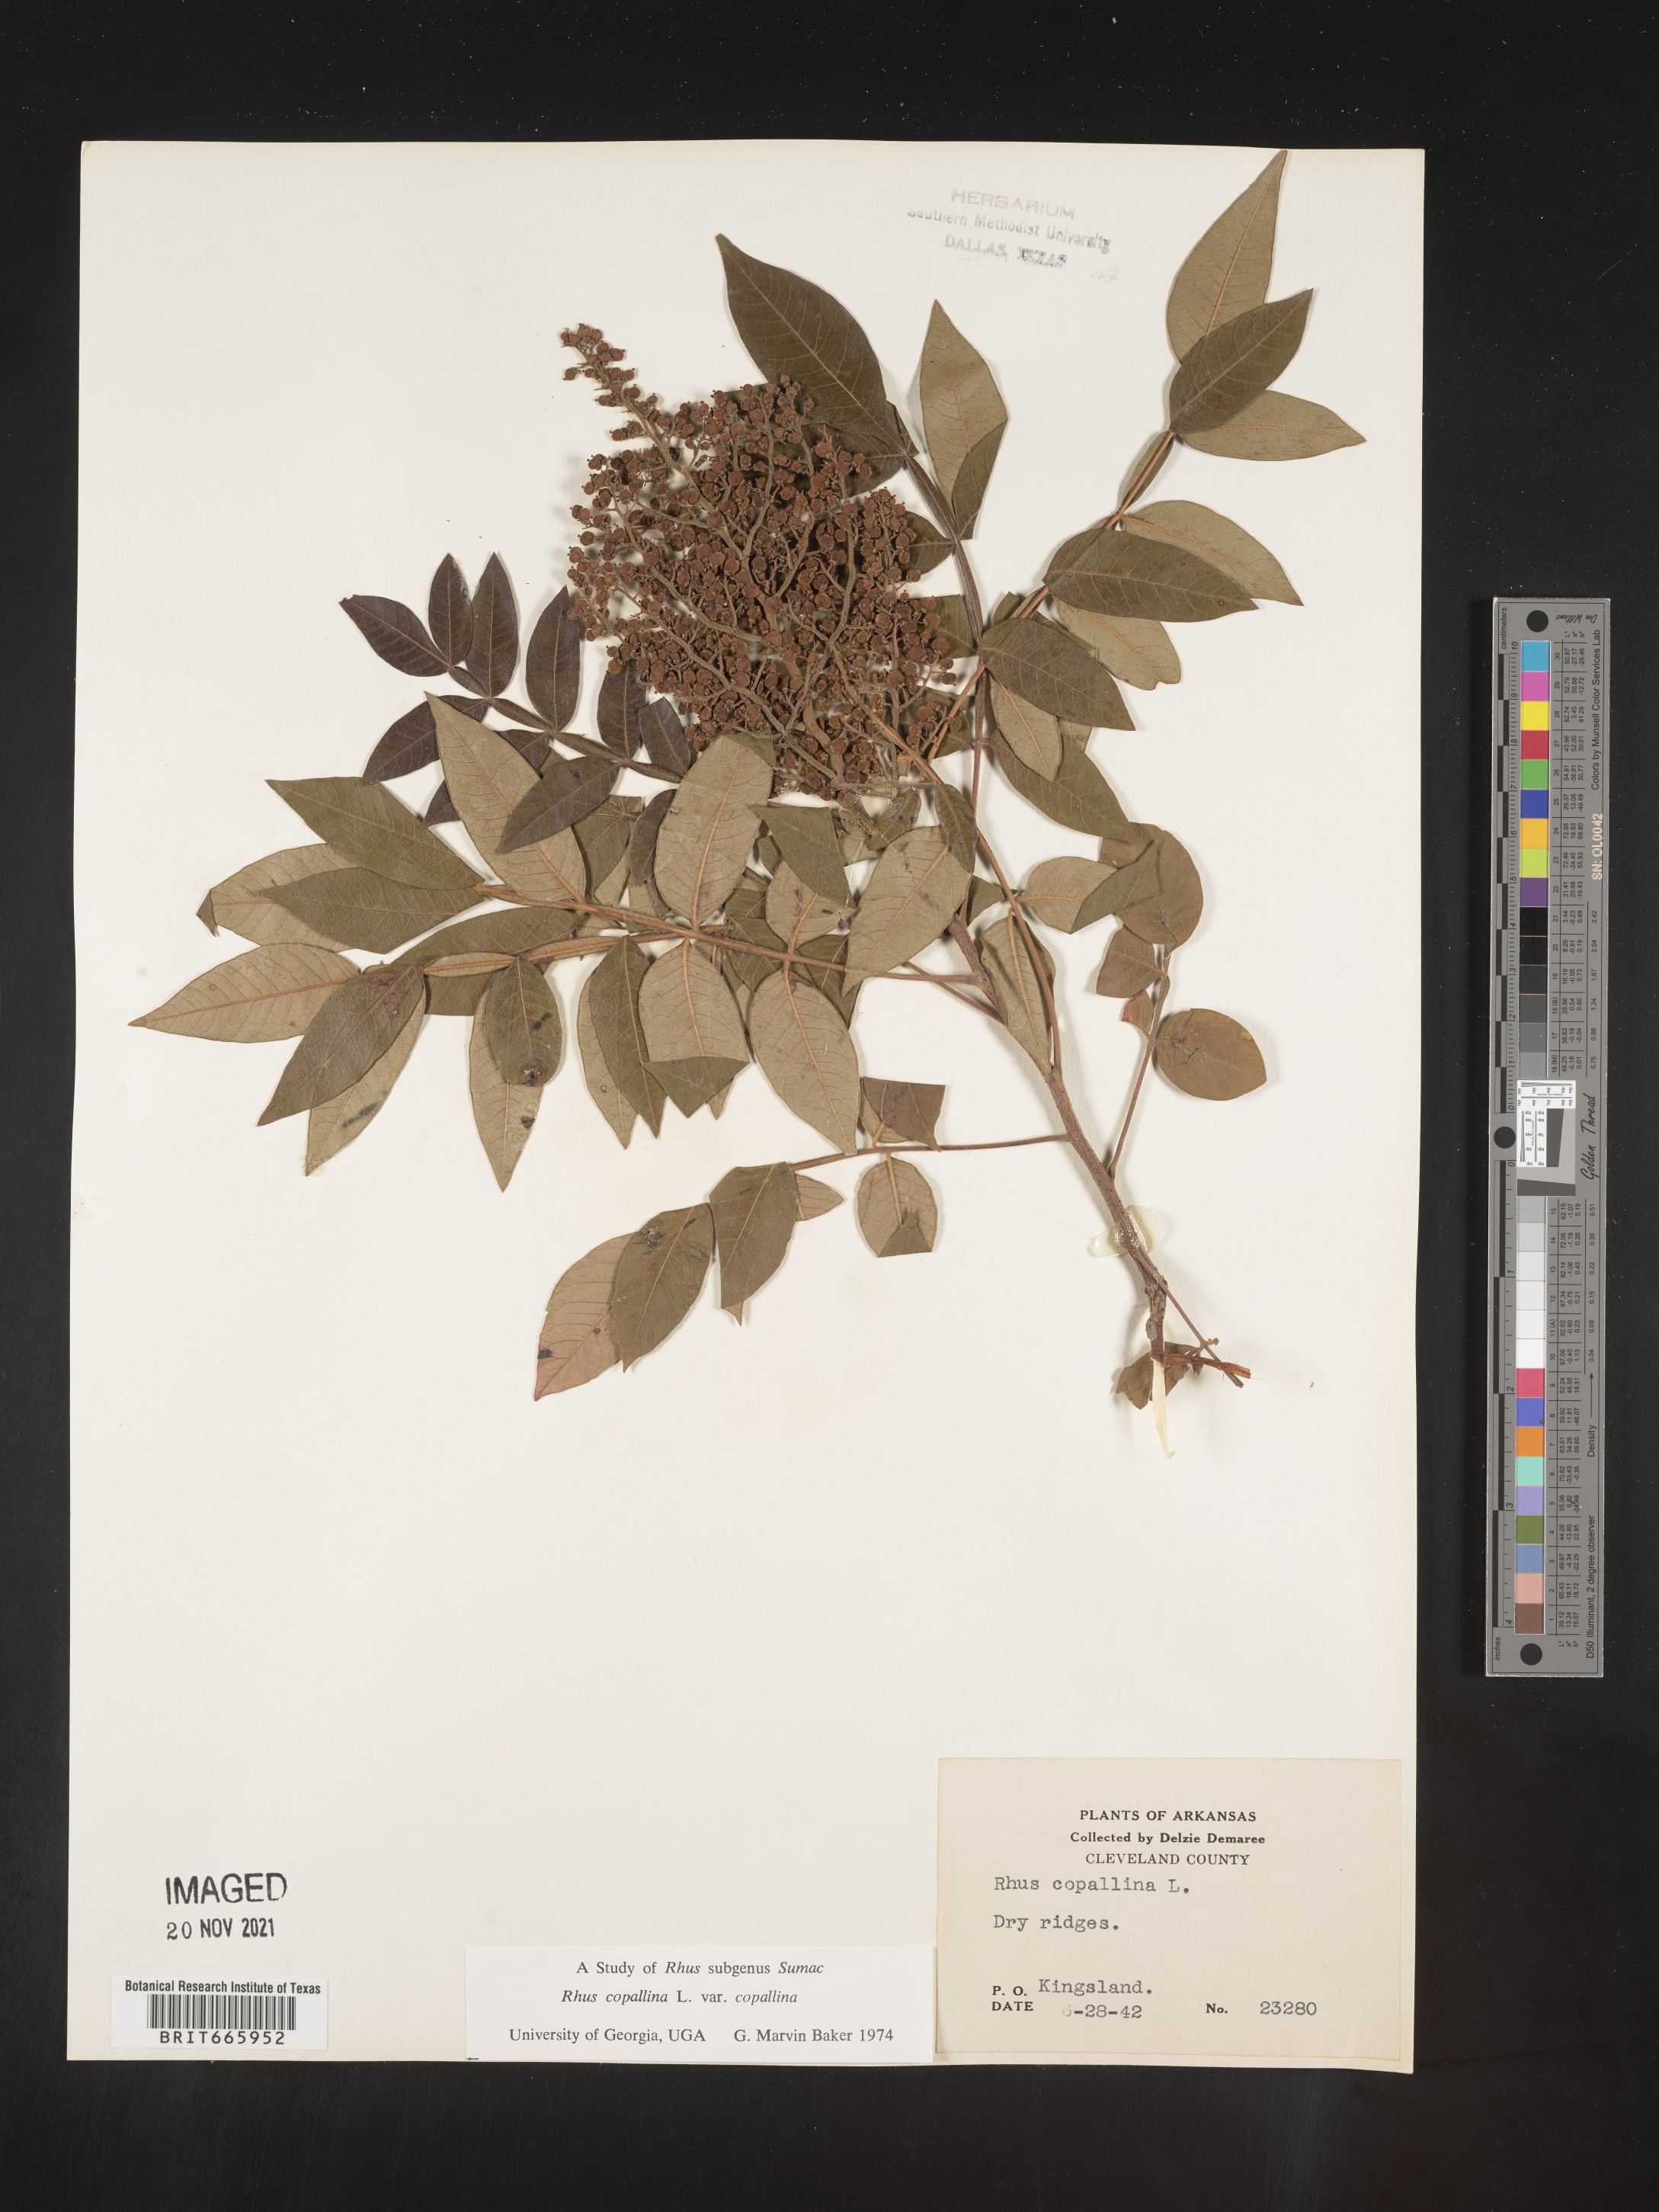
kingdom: Plantae
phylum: Tracheophyta
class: Magnoliopsida
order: Sapindales
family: Anacardiaceae
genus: Rhus
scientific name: Rhus copallina
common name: Shining sumac
